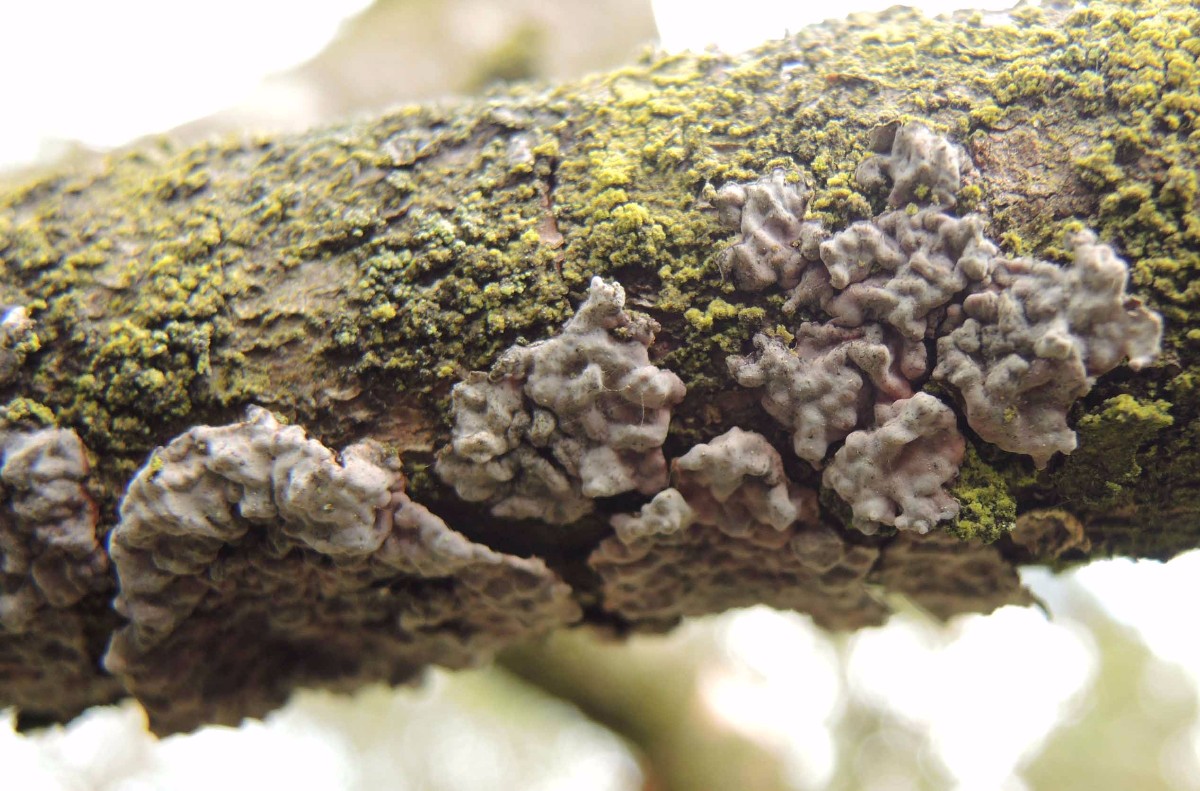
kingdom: Fungi
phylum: Basidiomycota
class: Agaricomycetes
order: Russulales
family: Peniophoraceae
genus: Peniophora
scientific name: Peniophora pini
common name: fyrre-voksskind
